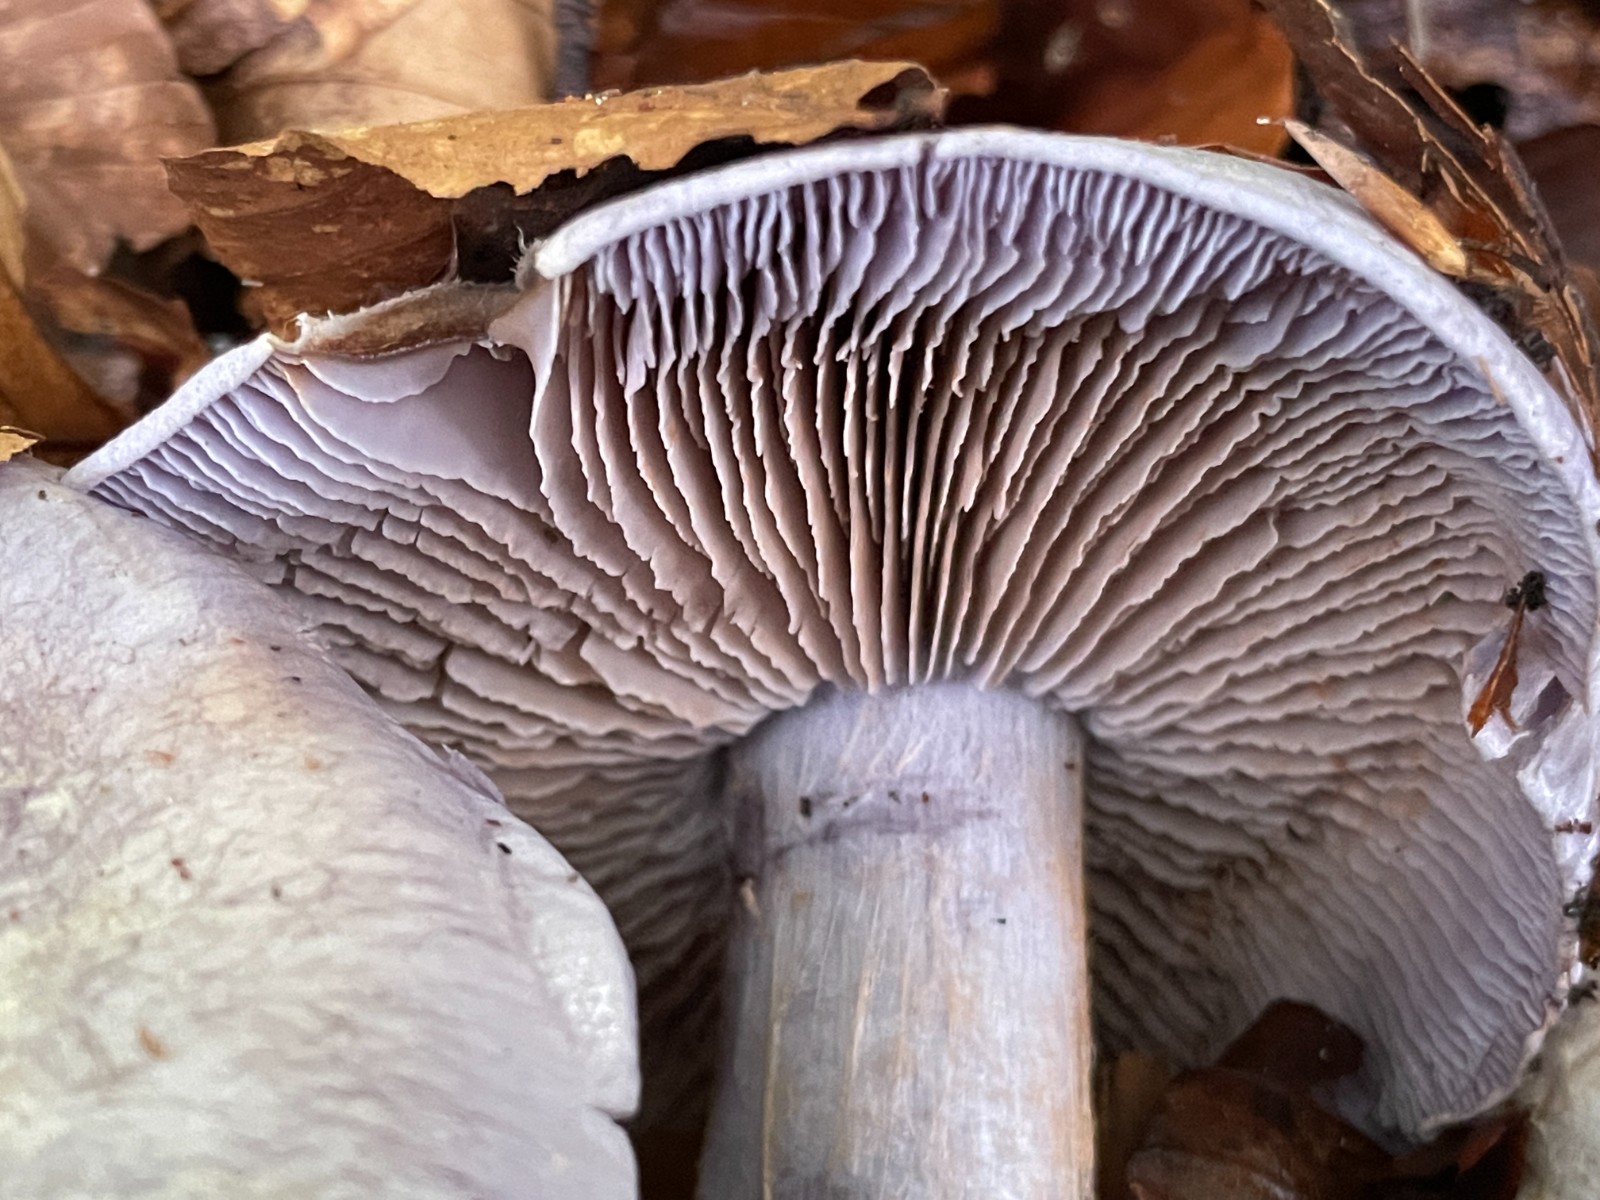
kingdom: Fungi
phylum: Basidiomycota
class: Agaricomycetes
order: Agaricales
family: Cortinariaceae
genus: Cortinarius
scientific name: Cortinarius caerulescens
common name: blåkødet slørhat
